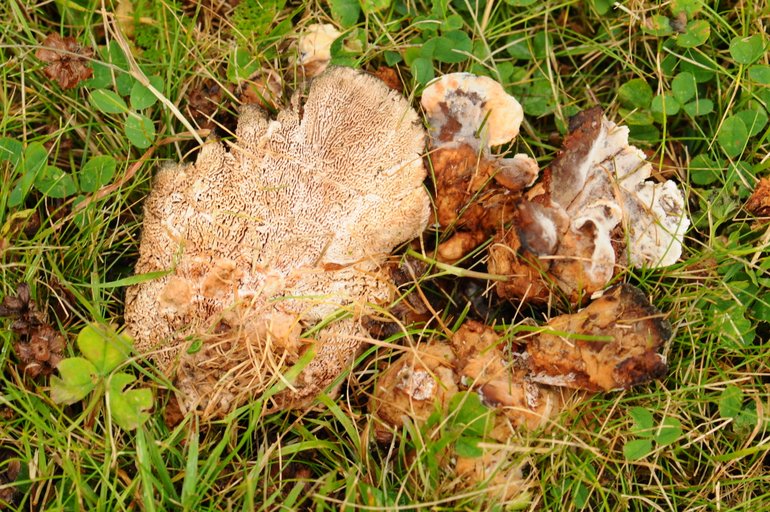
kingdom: Fungi
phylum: Basidiomycota
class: Agaricomycetes
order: Polyporales
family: Podoscyphaceae
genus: Abortiporus
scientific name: Abortiporus biennis
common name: rødmende pjalteporesvamp
